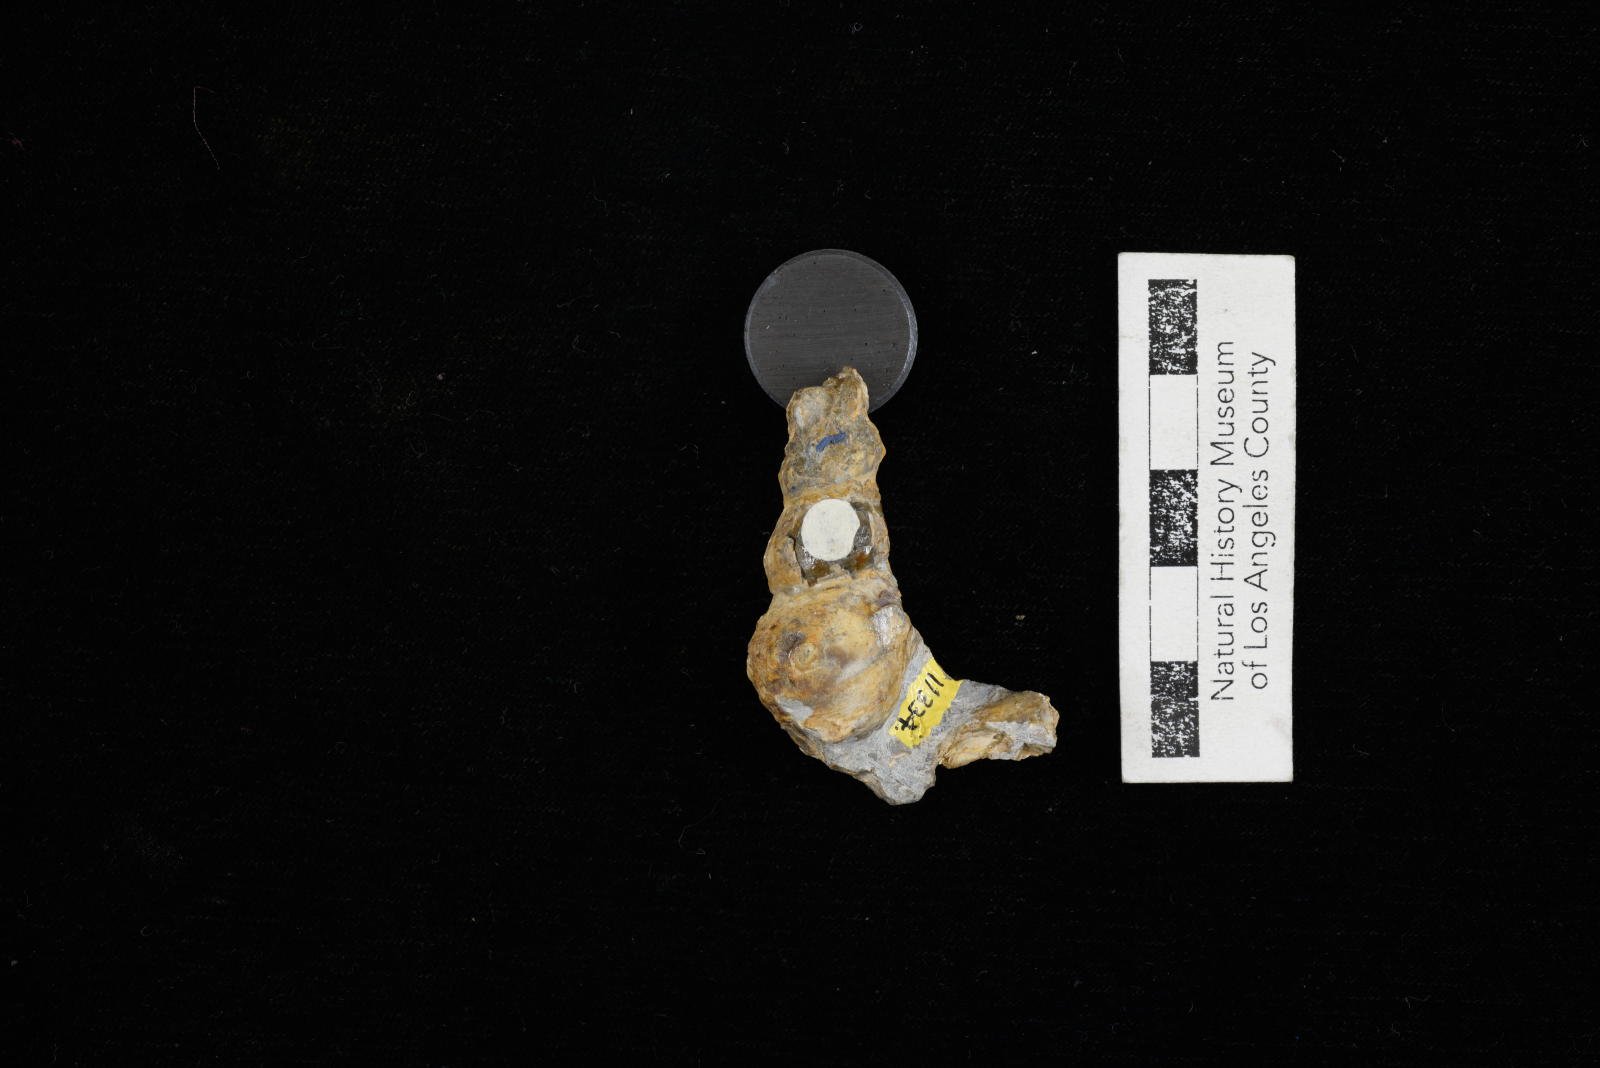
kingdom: Animalia
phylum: Mollusca
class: Gastropoda
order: Littorinimorpha
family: Aporrhaidae
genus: Anchura
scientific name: Anchura phaba
